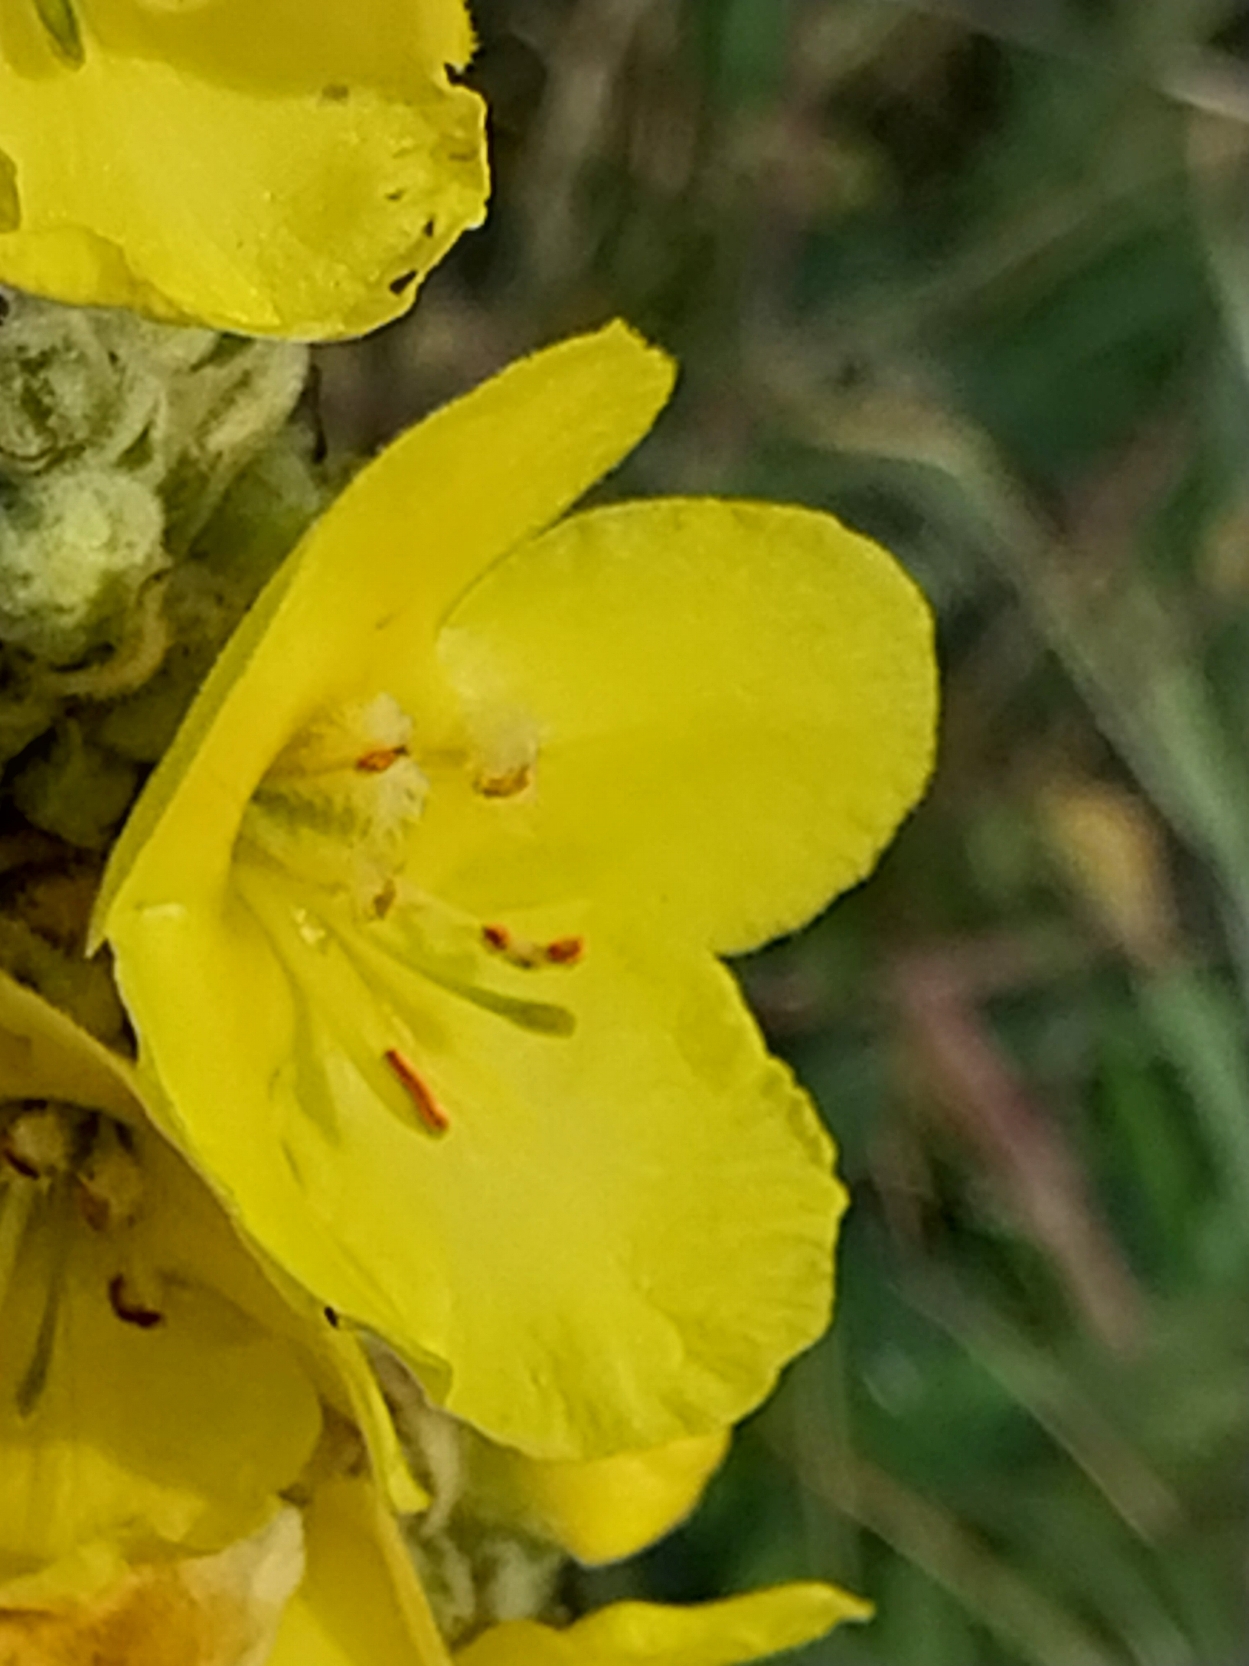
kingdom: Plantae
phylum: Tracheophyta
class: Magnoliopsida
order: Lamiales
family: Scrophulariaceae
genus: Verbascum
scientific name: Verbascum densiflorum
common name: Uldbladet kongelys
